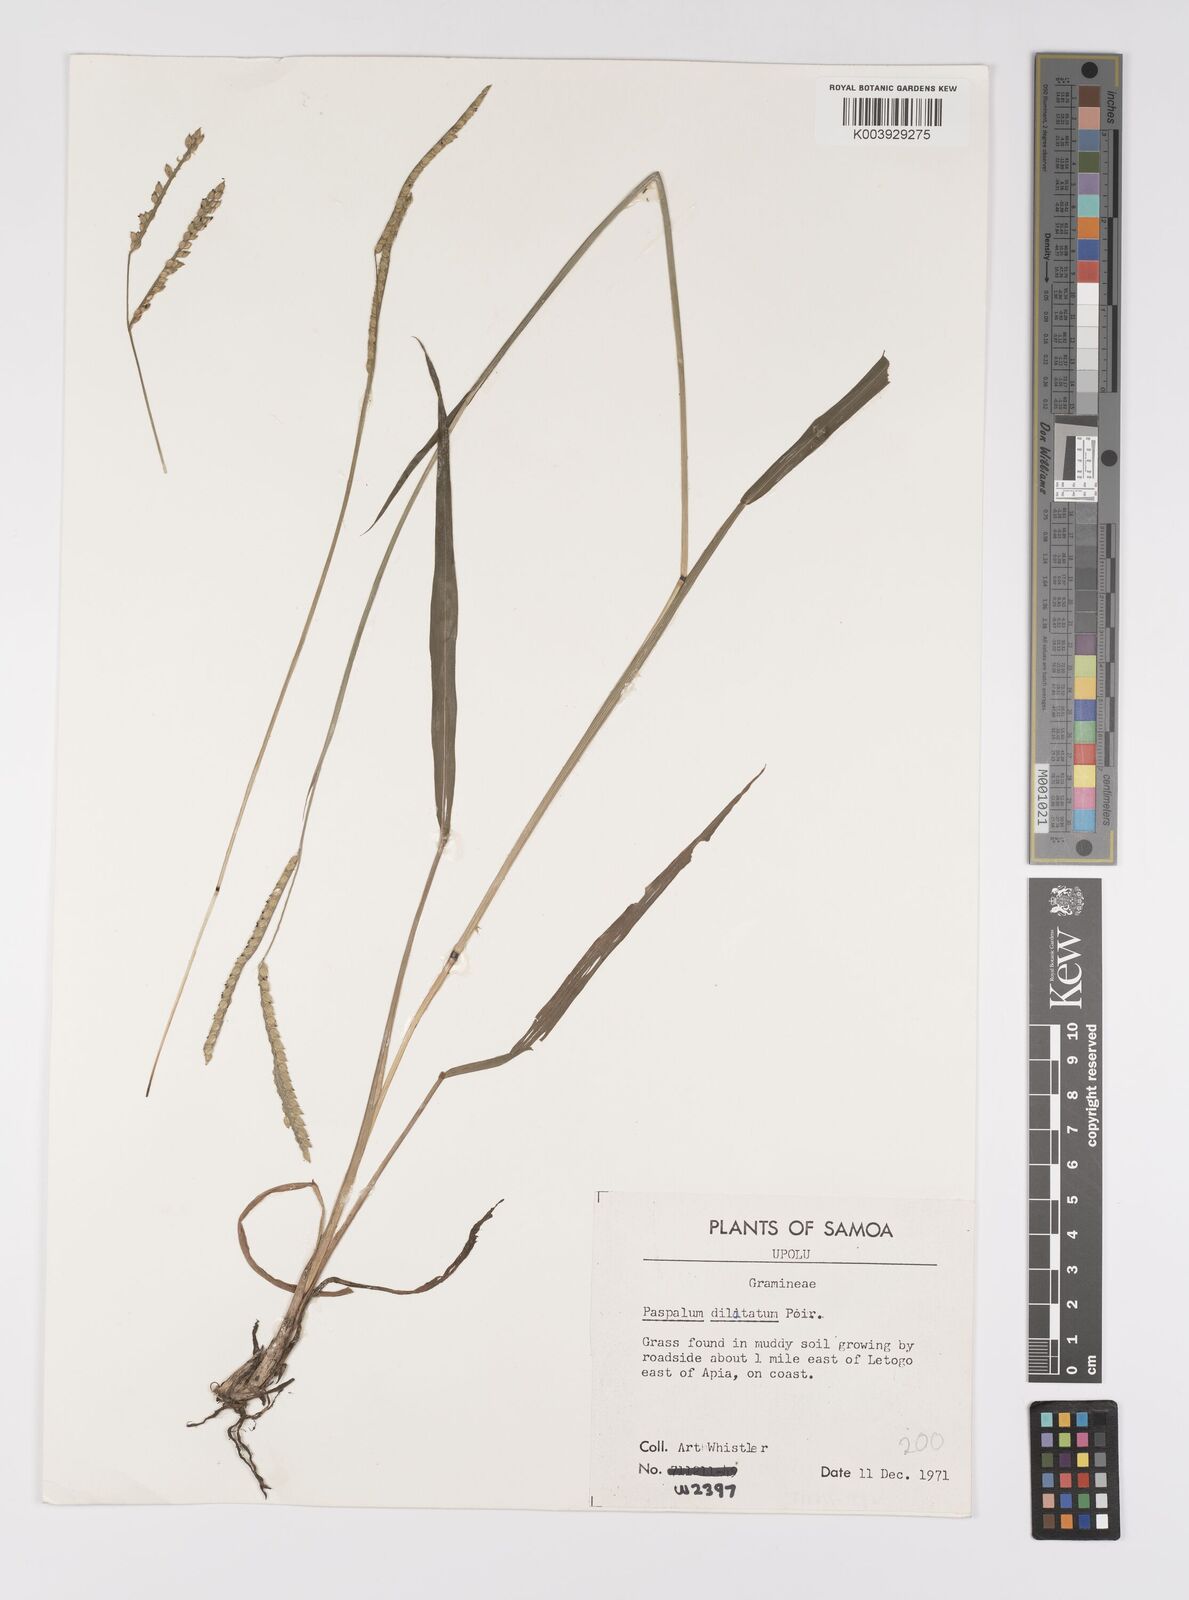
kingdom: Plantae
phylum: Tracheophyta
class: Liliopsida
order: Poales
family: Poaceae
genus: Paspalum
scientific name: Paspalum dilatatum
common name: Dallisgrass
